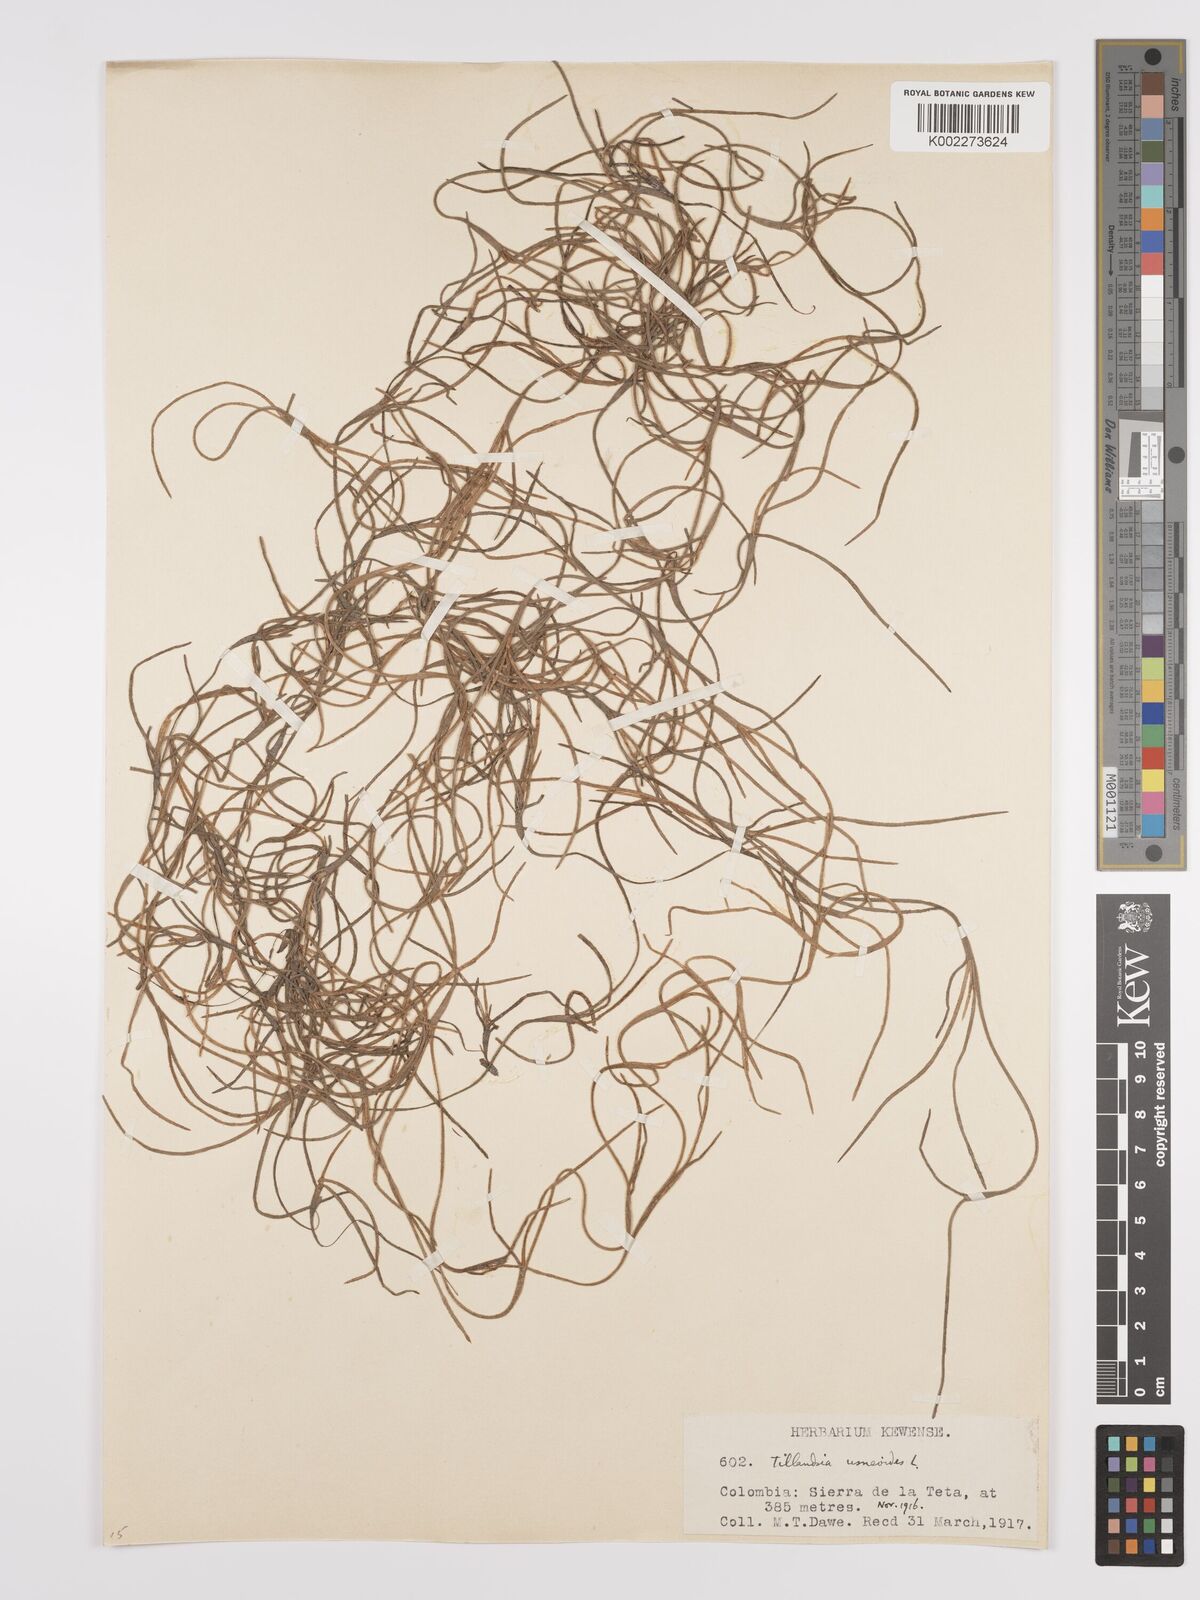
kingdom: Plantae
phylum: Tracheophyta
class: Liliopsida
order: Poales
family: Bromeliaceae
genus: Tillandsia
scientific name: Tillandsia usneoides
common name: Spanish moss
